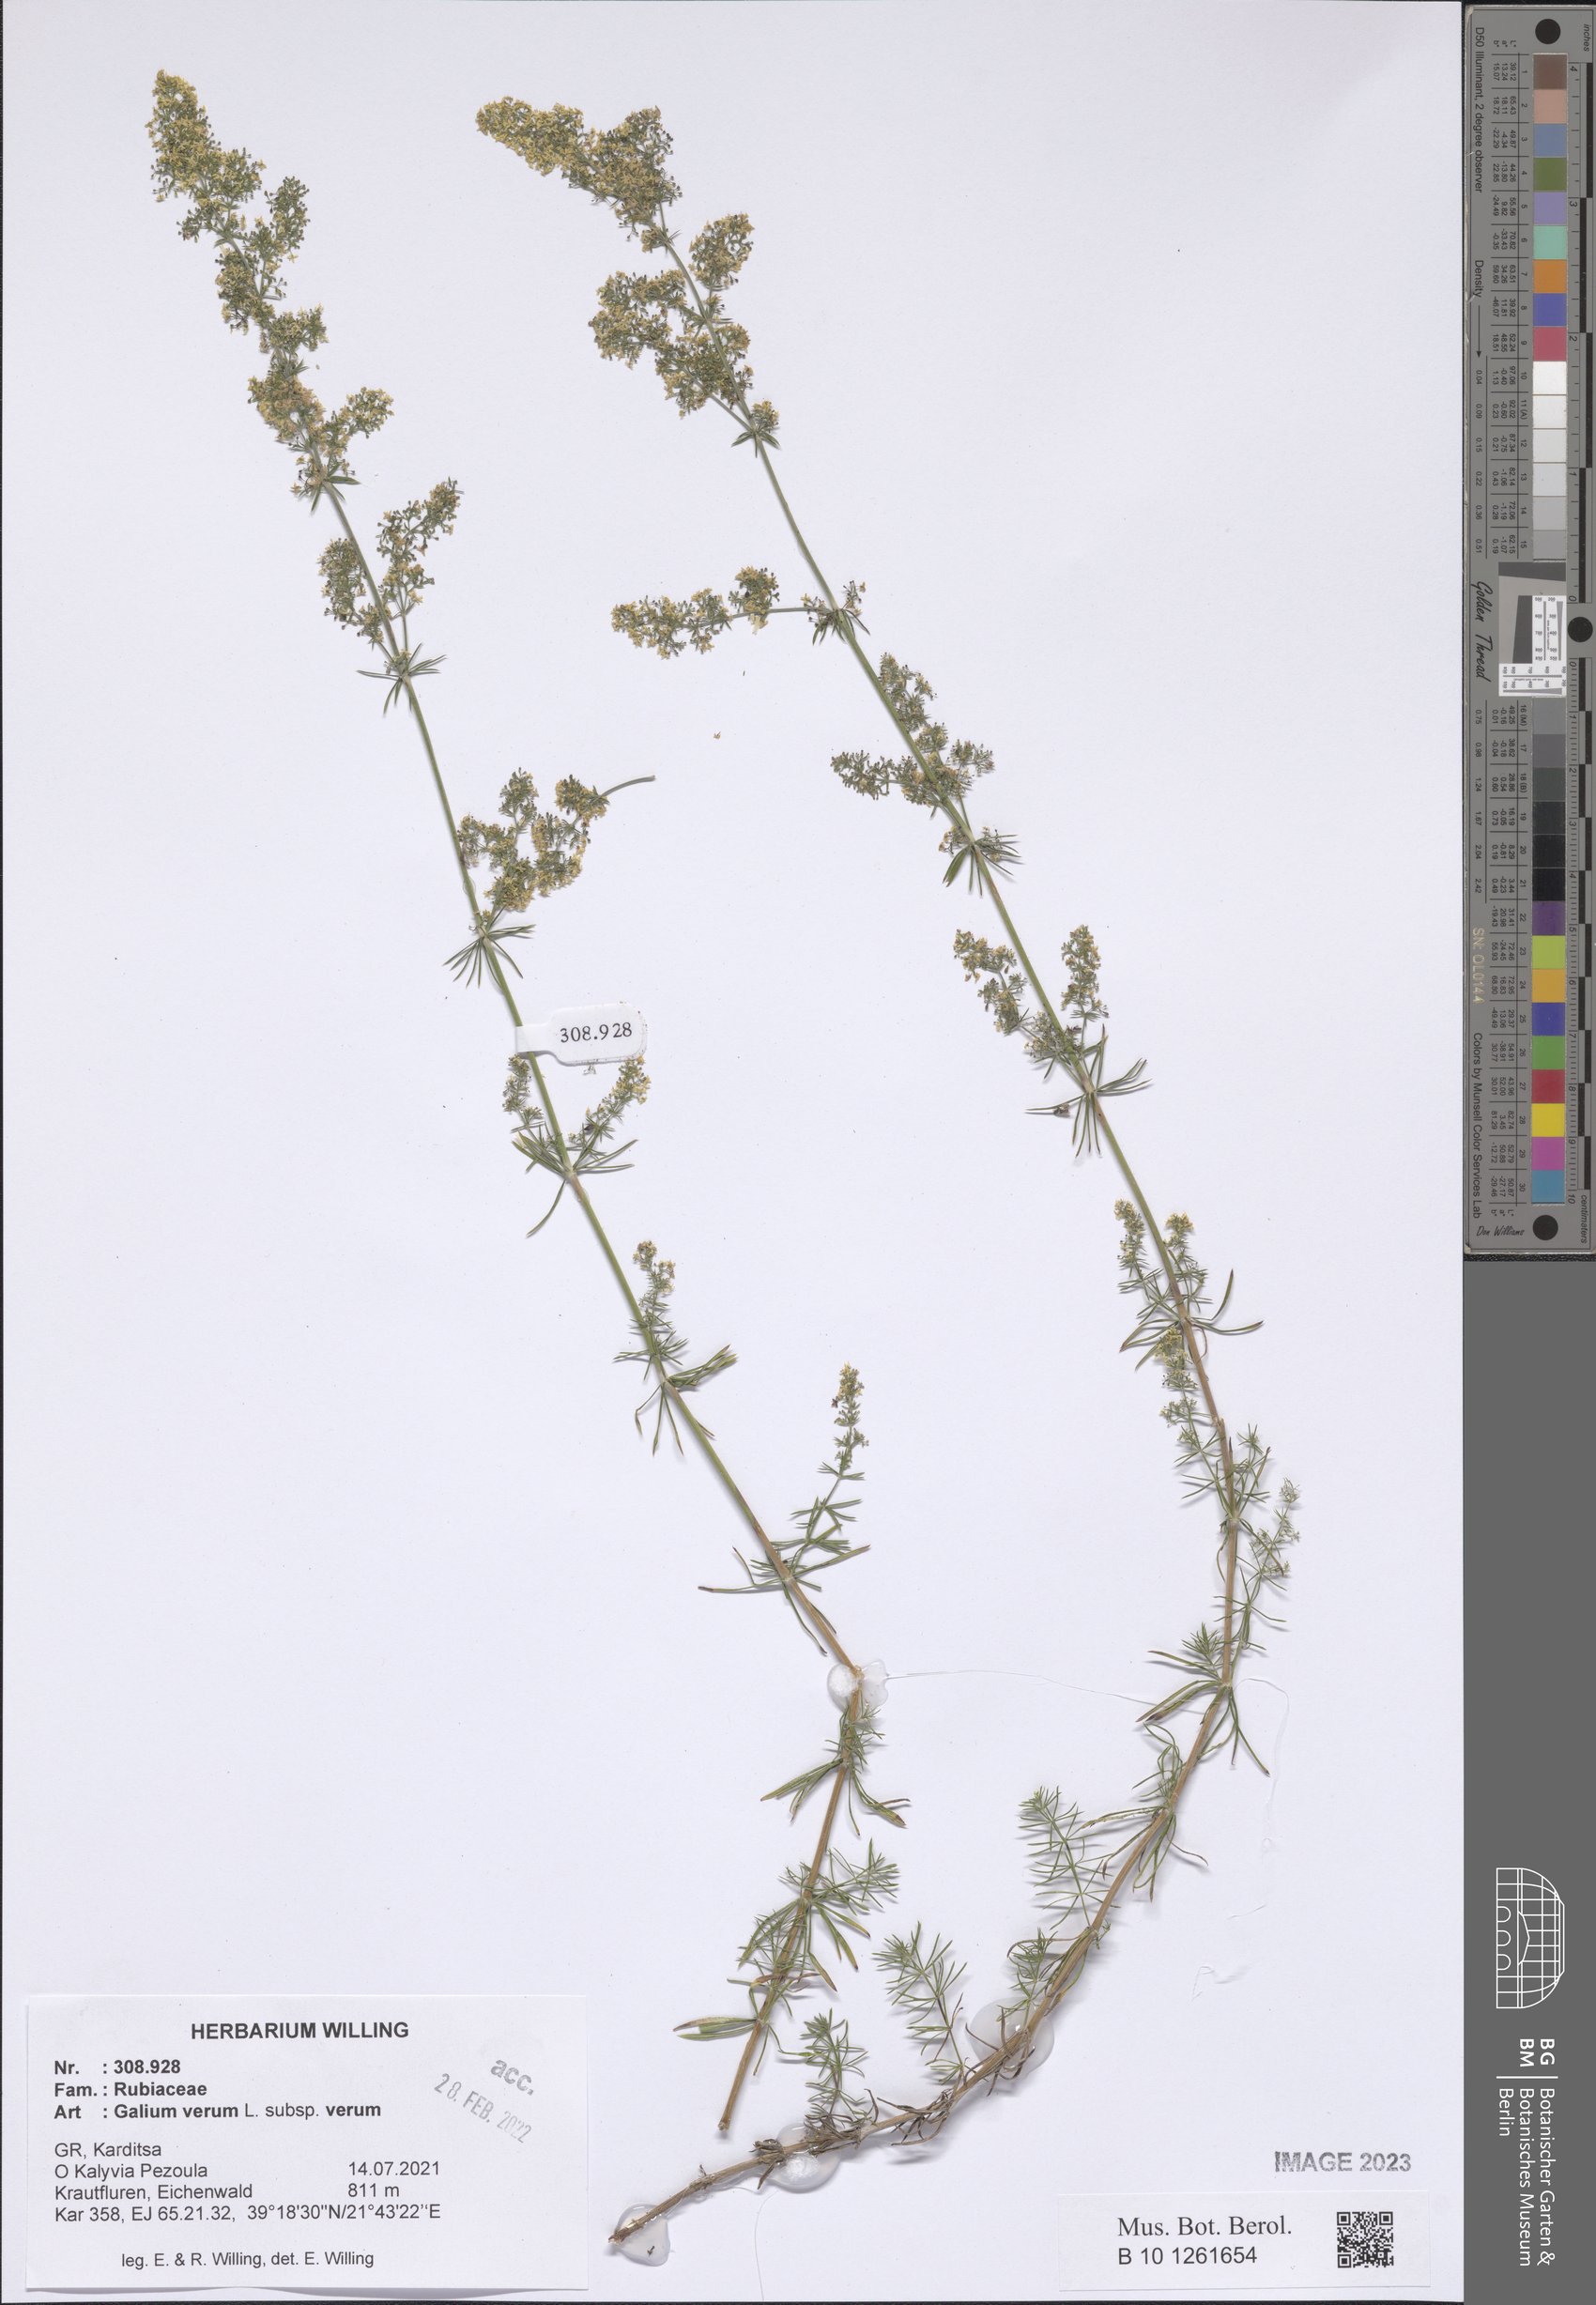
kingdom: Plantae
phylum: Tracheophyta
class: Magnoliopsida
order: Gentianales
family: Rubiaceae
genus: Galium
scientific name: Galium verum
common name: Lady's bedstraw
